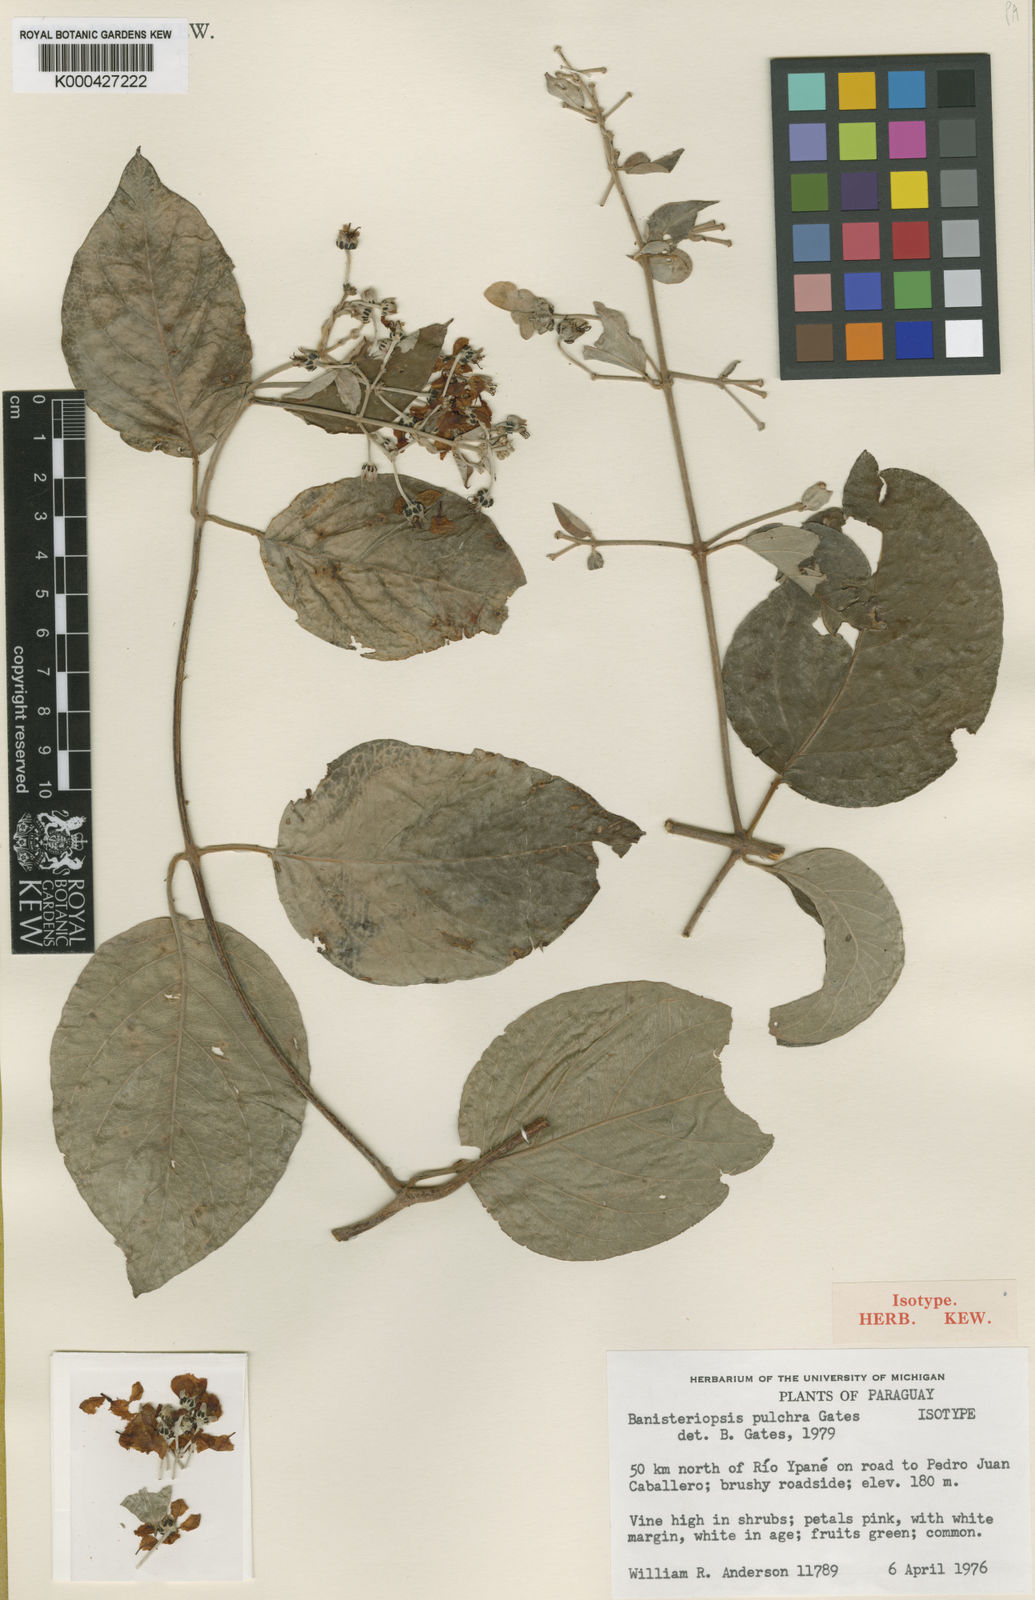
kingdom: Plantae
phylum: Tracheophyta
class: Magnoliopsida
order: Malpighiales
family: Malpighiaceae
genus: Banisteriopsis
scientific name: Banisteriopsis pulchra
